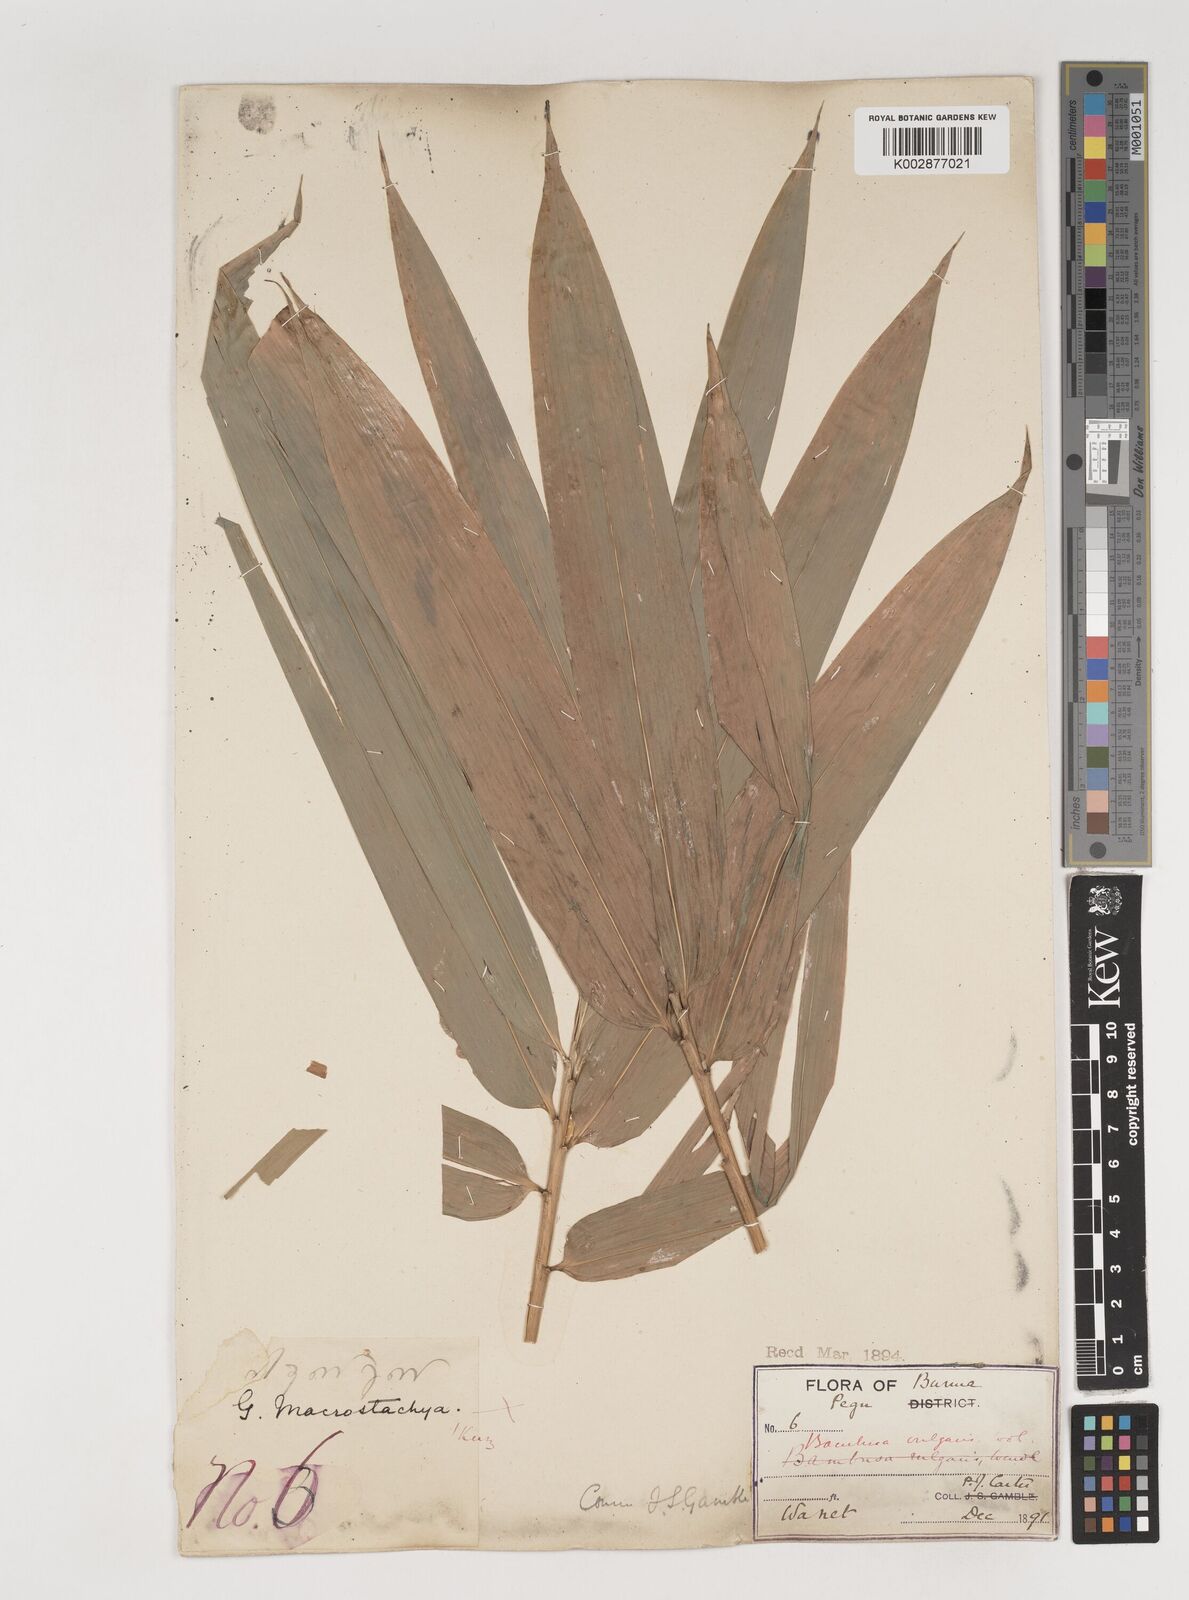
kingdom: Plantae
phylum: Tracheophyta
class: Liliopsida
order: Poales
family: Poaceae
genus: Bambusa
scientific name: Bambusa vulgaris
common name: Common bamboo
